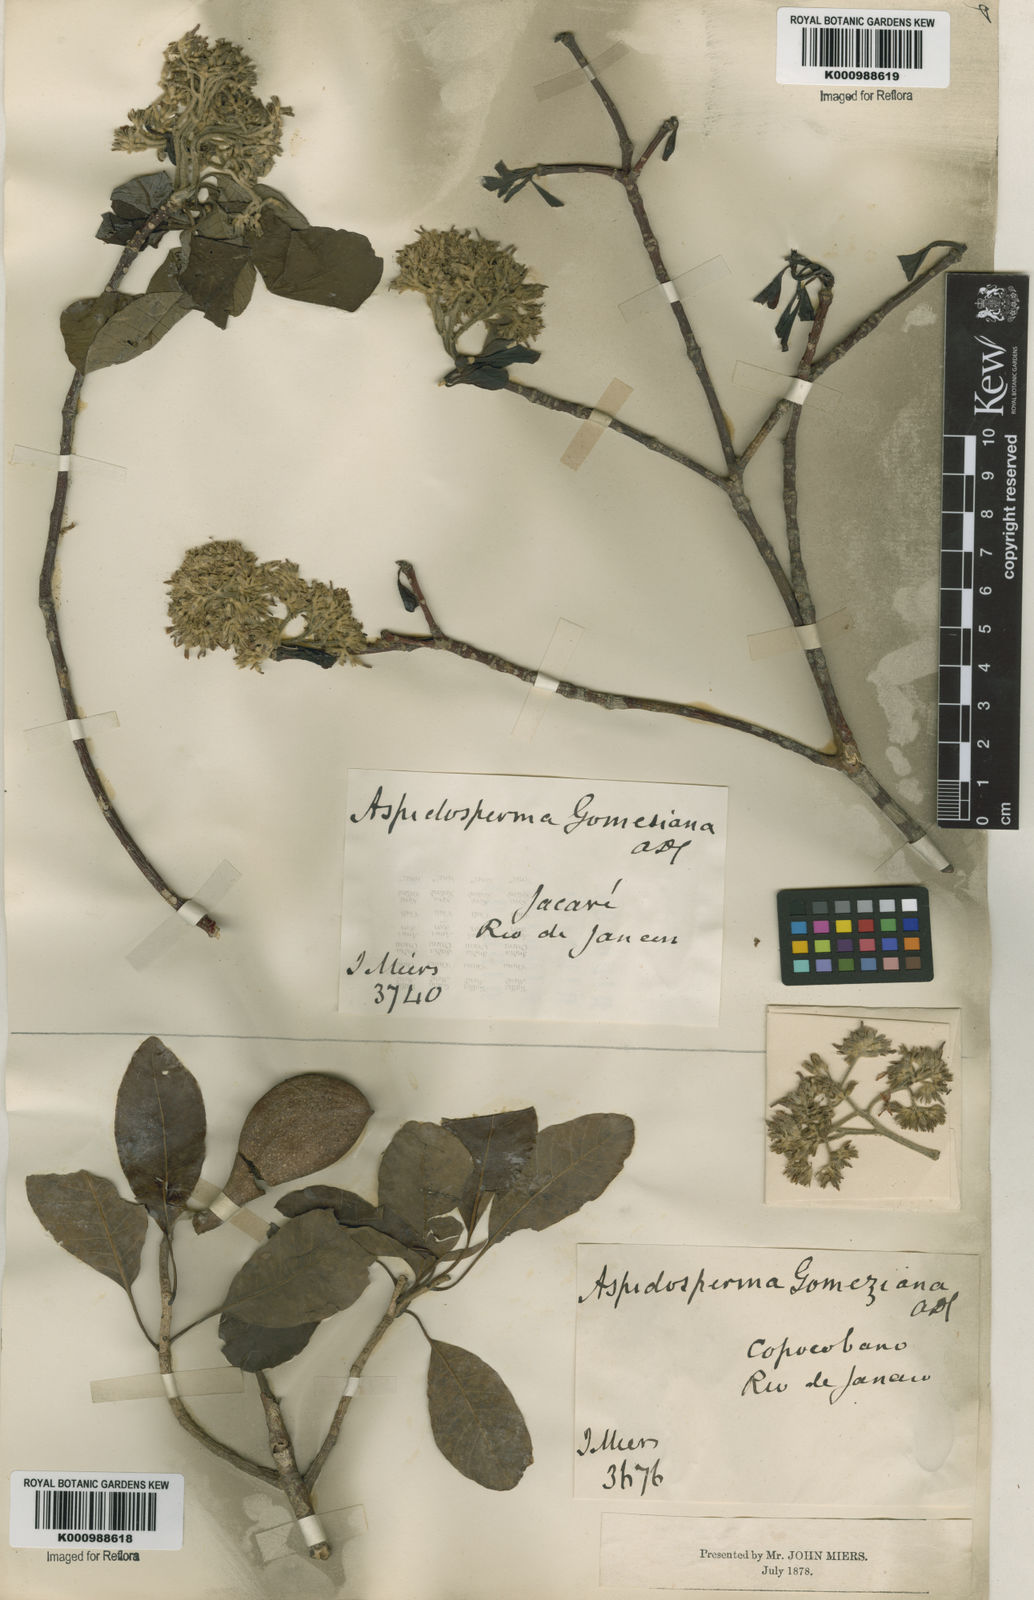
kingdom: Plantae
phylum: Tracheophyta
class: Magnoliopsida
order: Gentianales
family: Apocynaceae
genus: Aspidosperma
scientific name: Aspidosperma tomentosum
